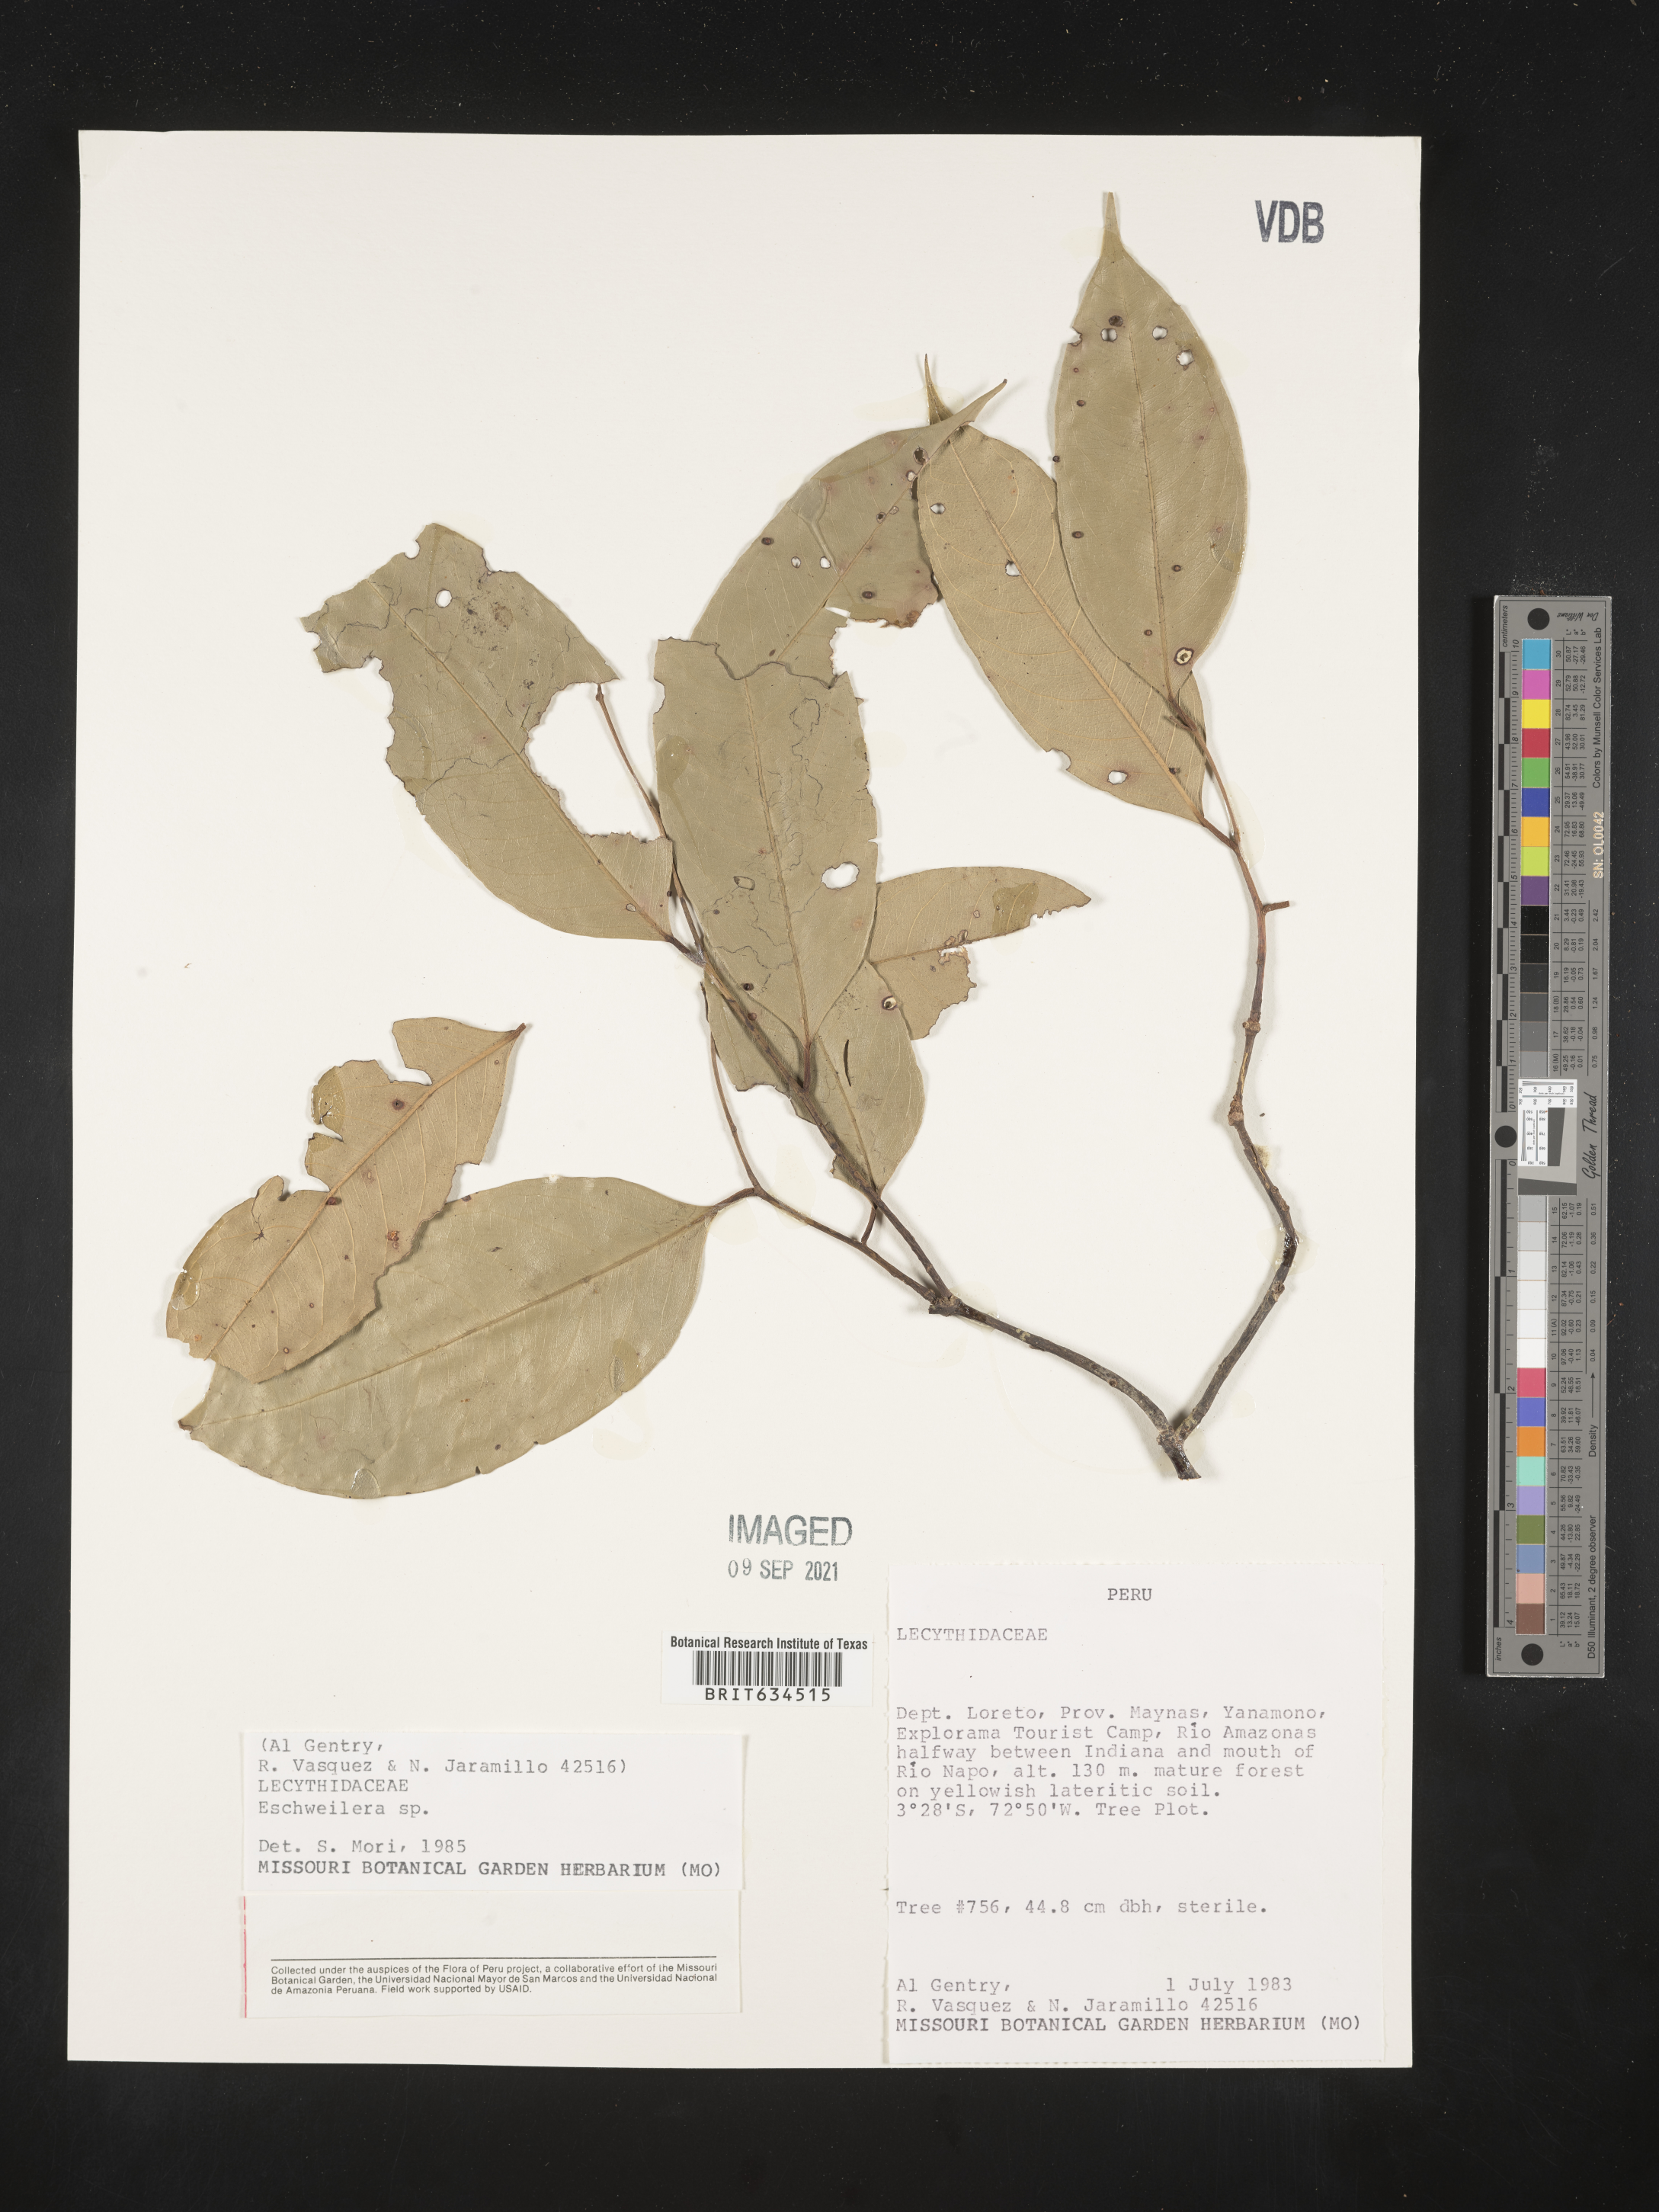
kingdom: Plantae
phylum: Tracheophyta
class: Magnoliopsida
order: Ericales
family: Lecythidaceae
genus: Eschweilera
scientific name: Eschweilera
